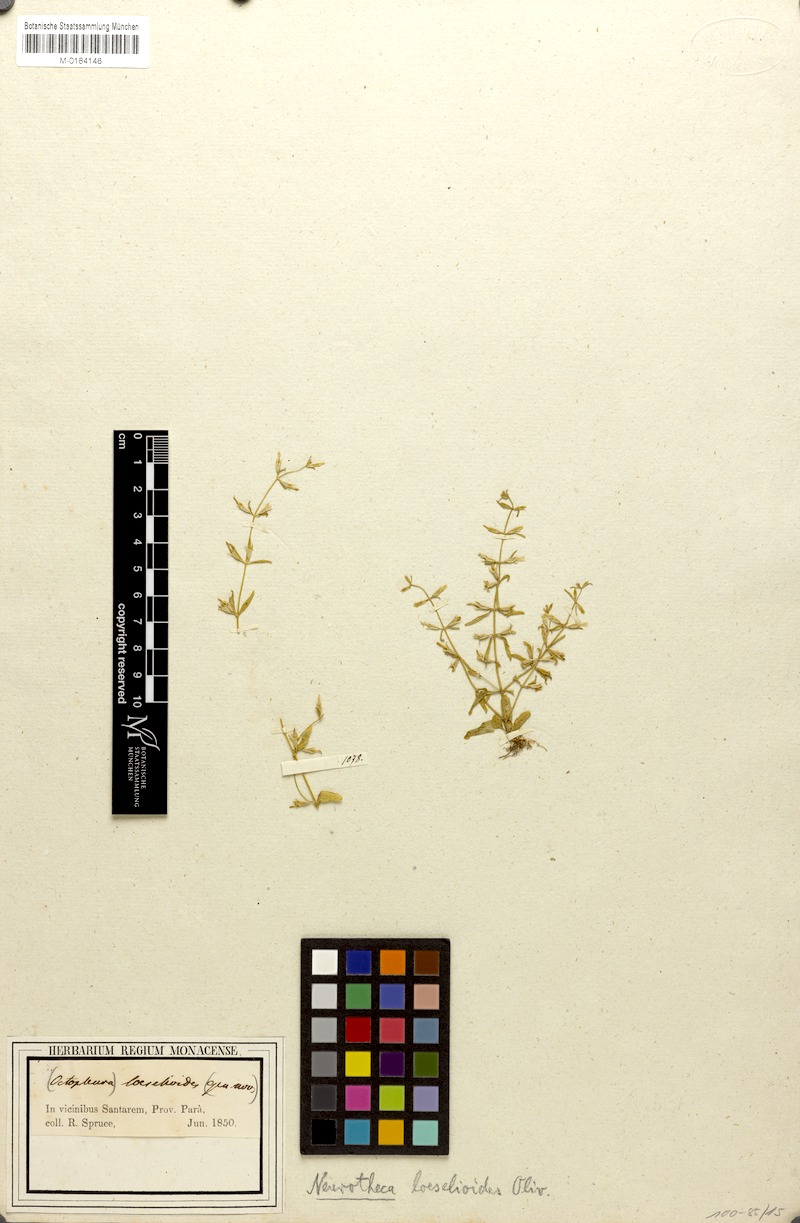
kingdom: Plantae
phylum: Tracheophyta
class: Magnoliopsida
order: Gentianales
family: Gentianaceae
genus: Neurotheca
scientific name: Neurotheca loeselioides
